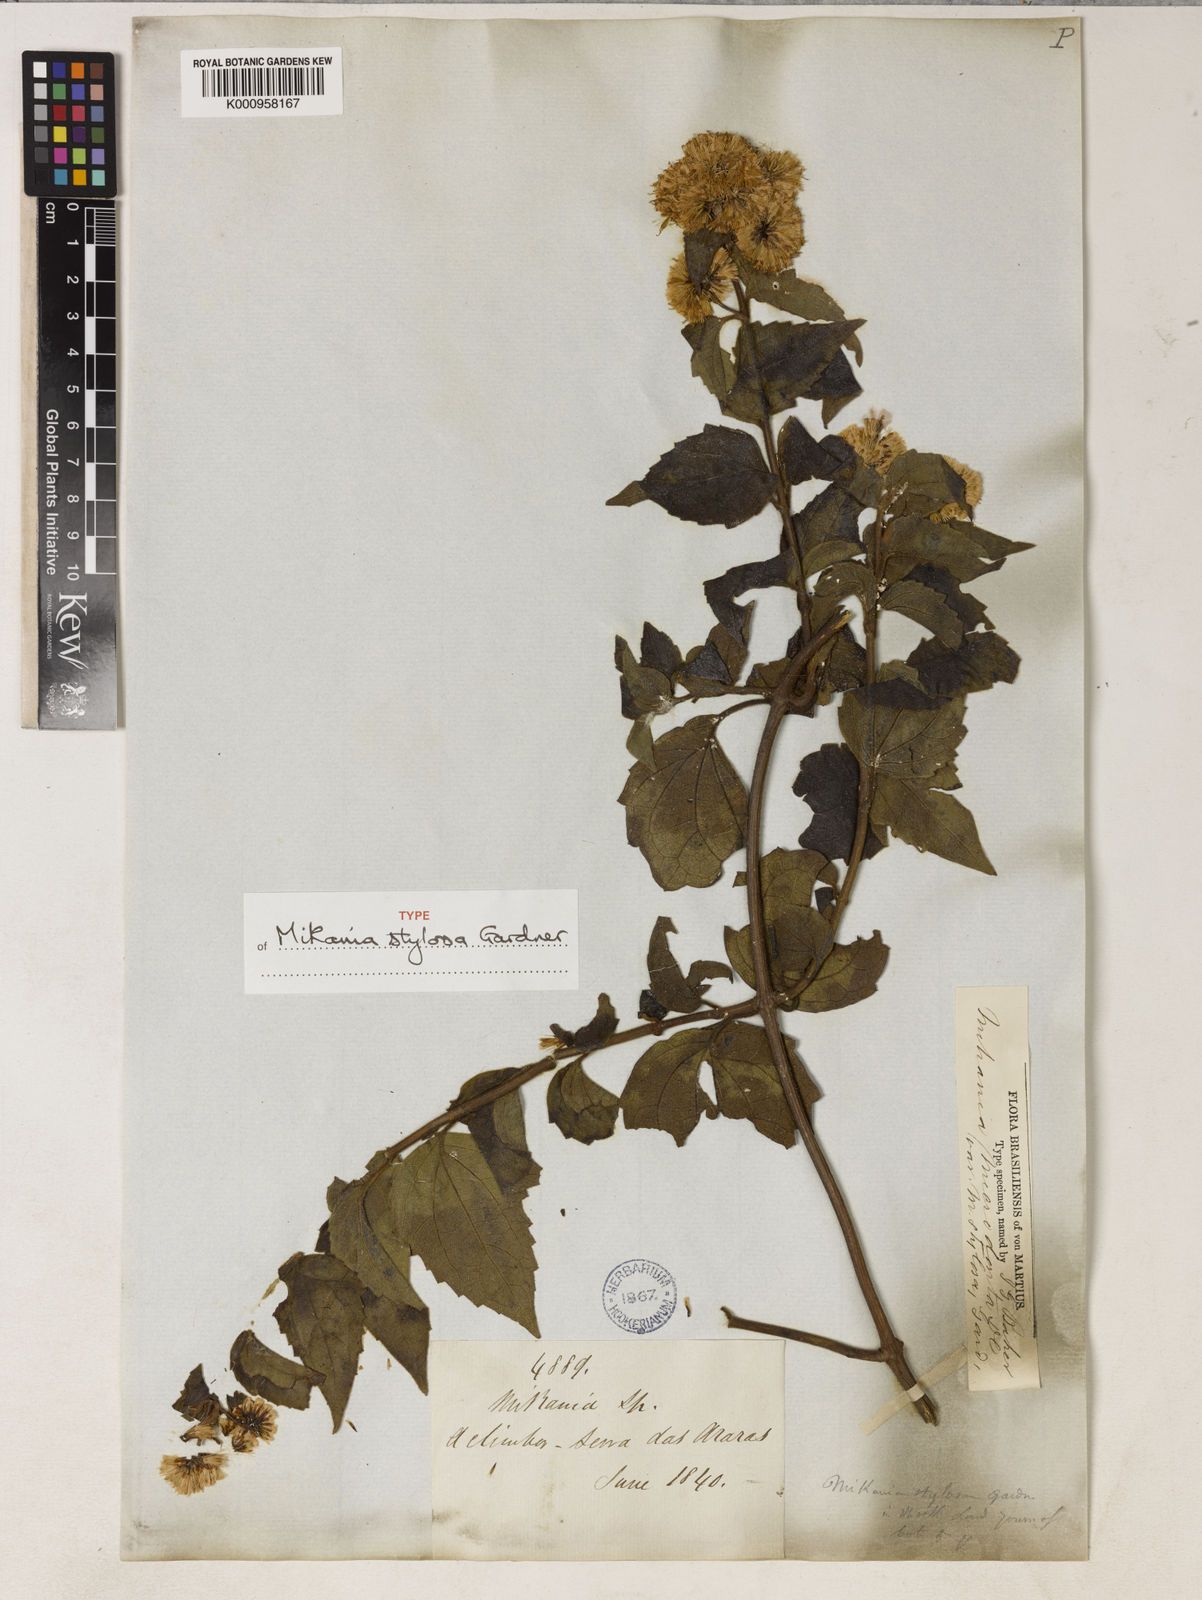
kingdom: Plantae
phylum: Tracheophyta
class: Magnoliopsida
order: Asterales
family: Asteraceae
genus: Mikania
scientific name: Mikania stylosa
